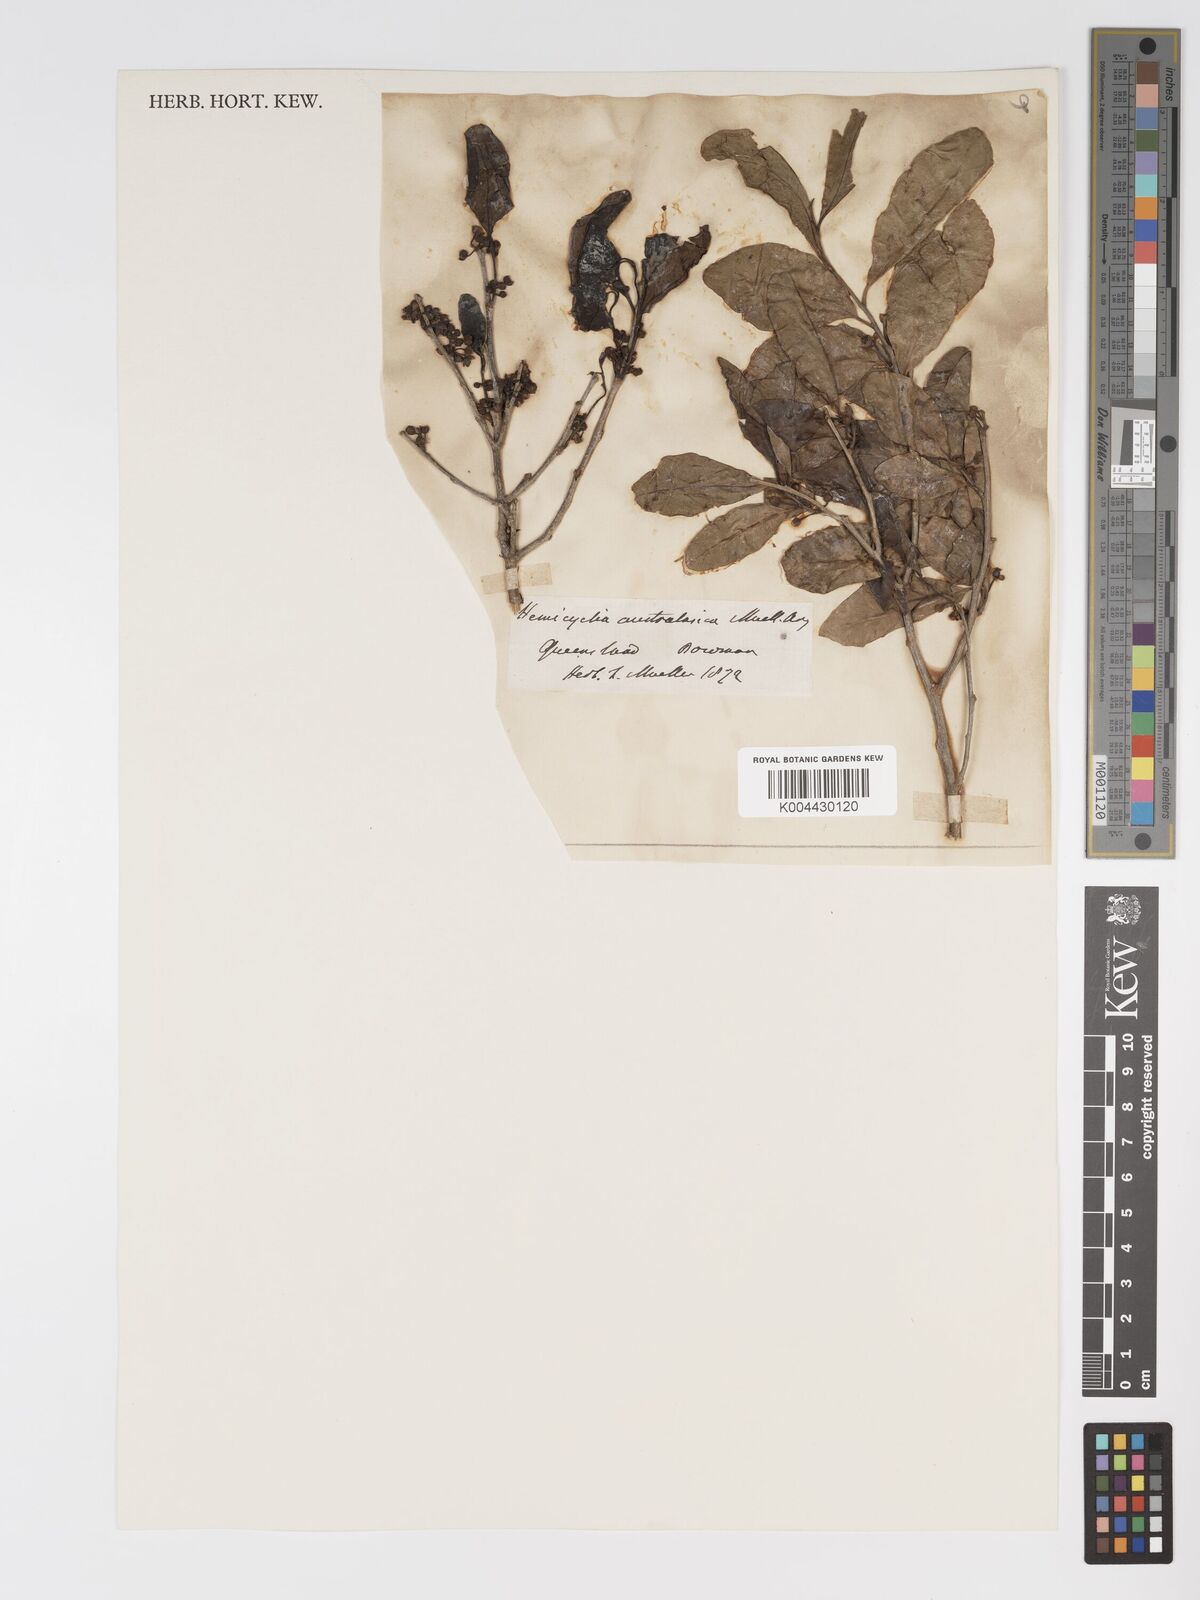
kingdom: Plantae
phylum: Tracheophyta
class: Magnoliopsida
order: Malpighiales
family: Putranjivaceae
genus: Drypetes
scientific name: Drypetes deplanchei
